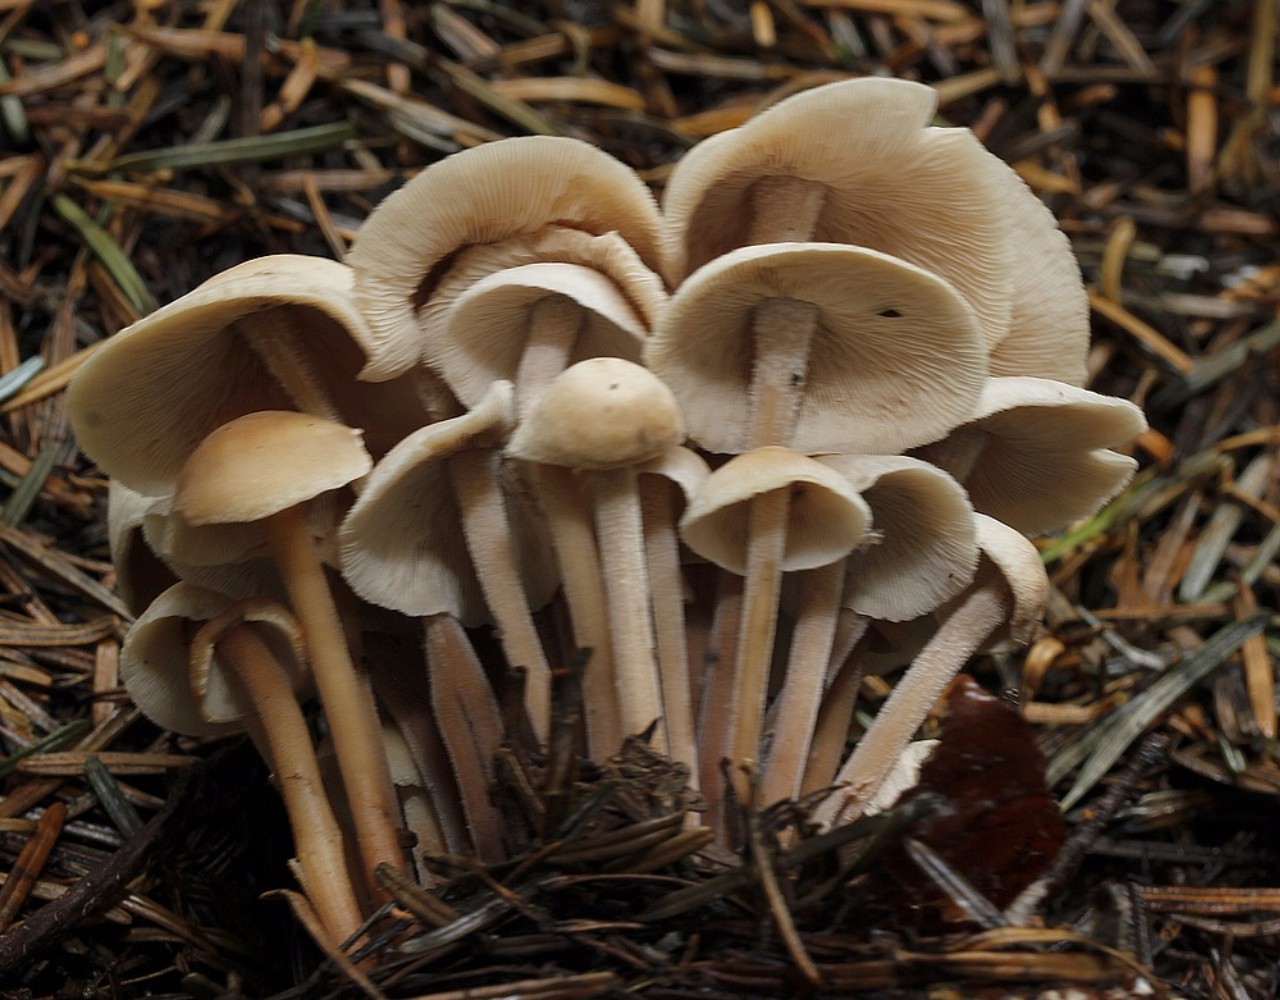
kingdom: Fungi
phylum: Basidiomycota
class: Agaricomycetes
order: Agaricales
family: Omphalotaceae
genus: Collybiopsis
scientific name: Collybiopsis confluens
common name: knippe-fladhat
